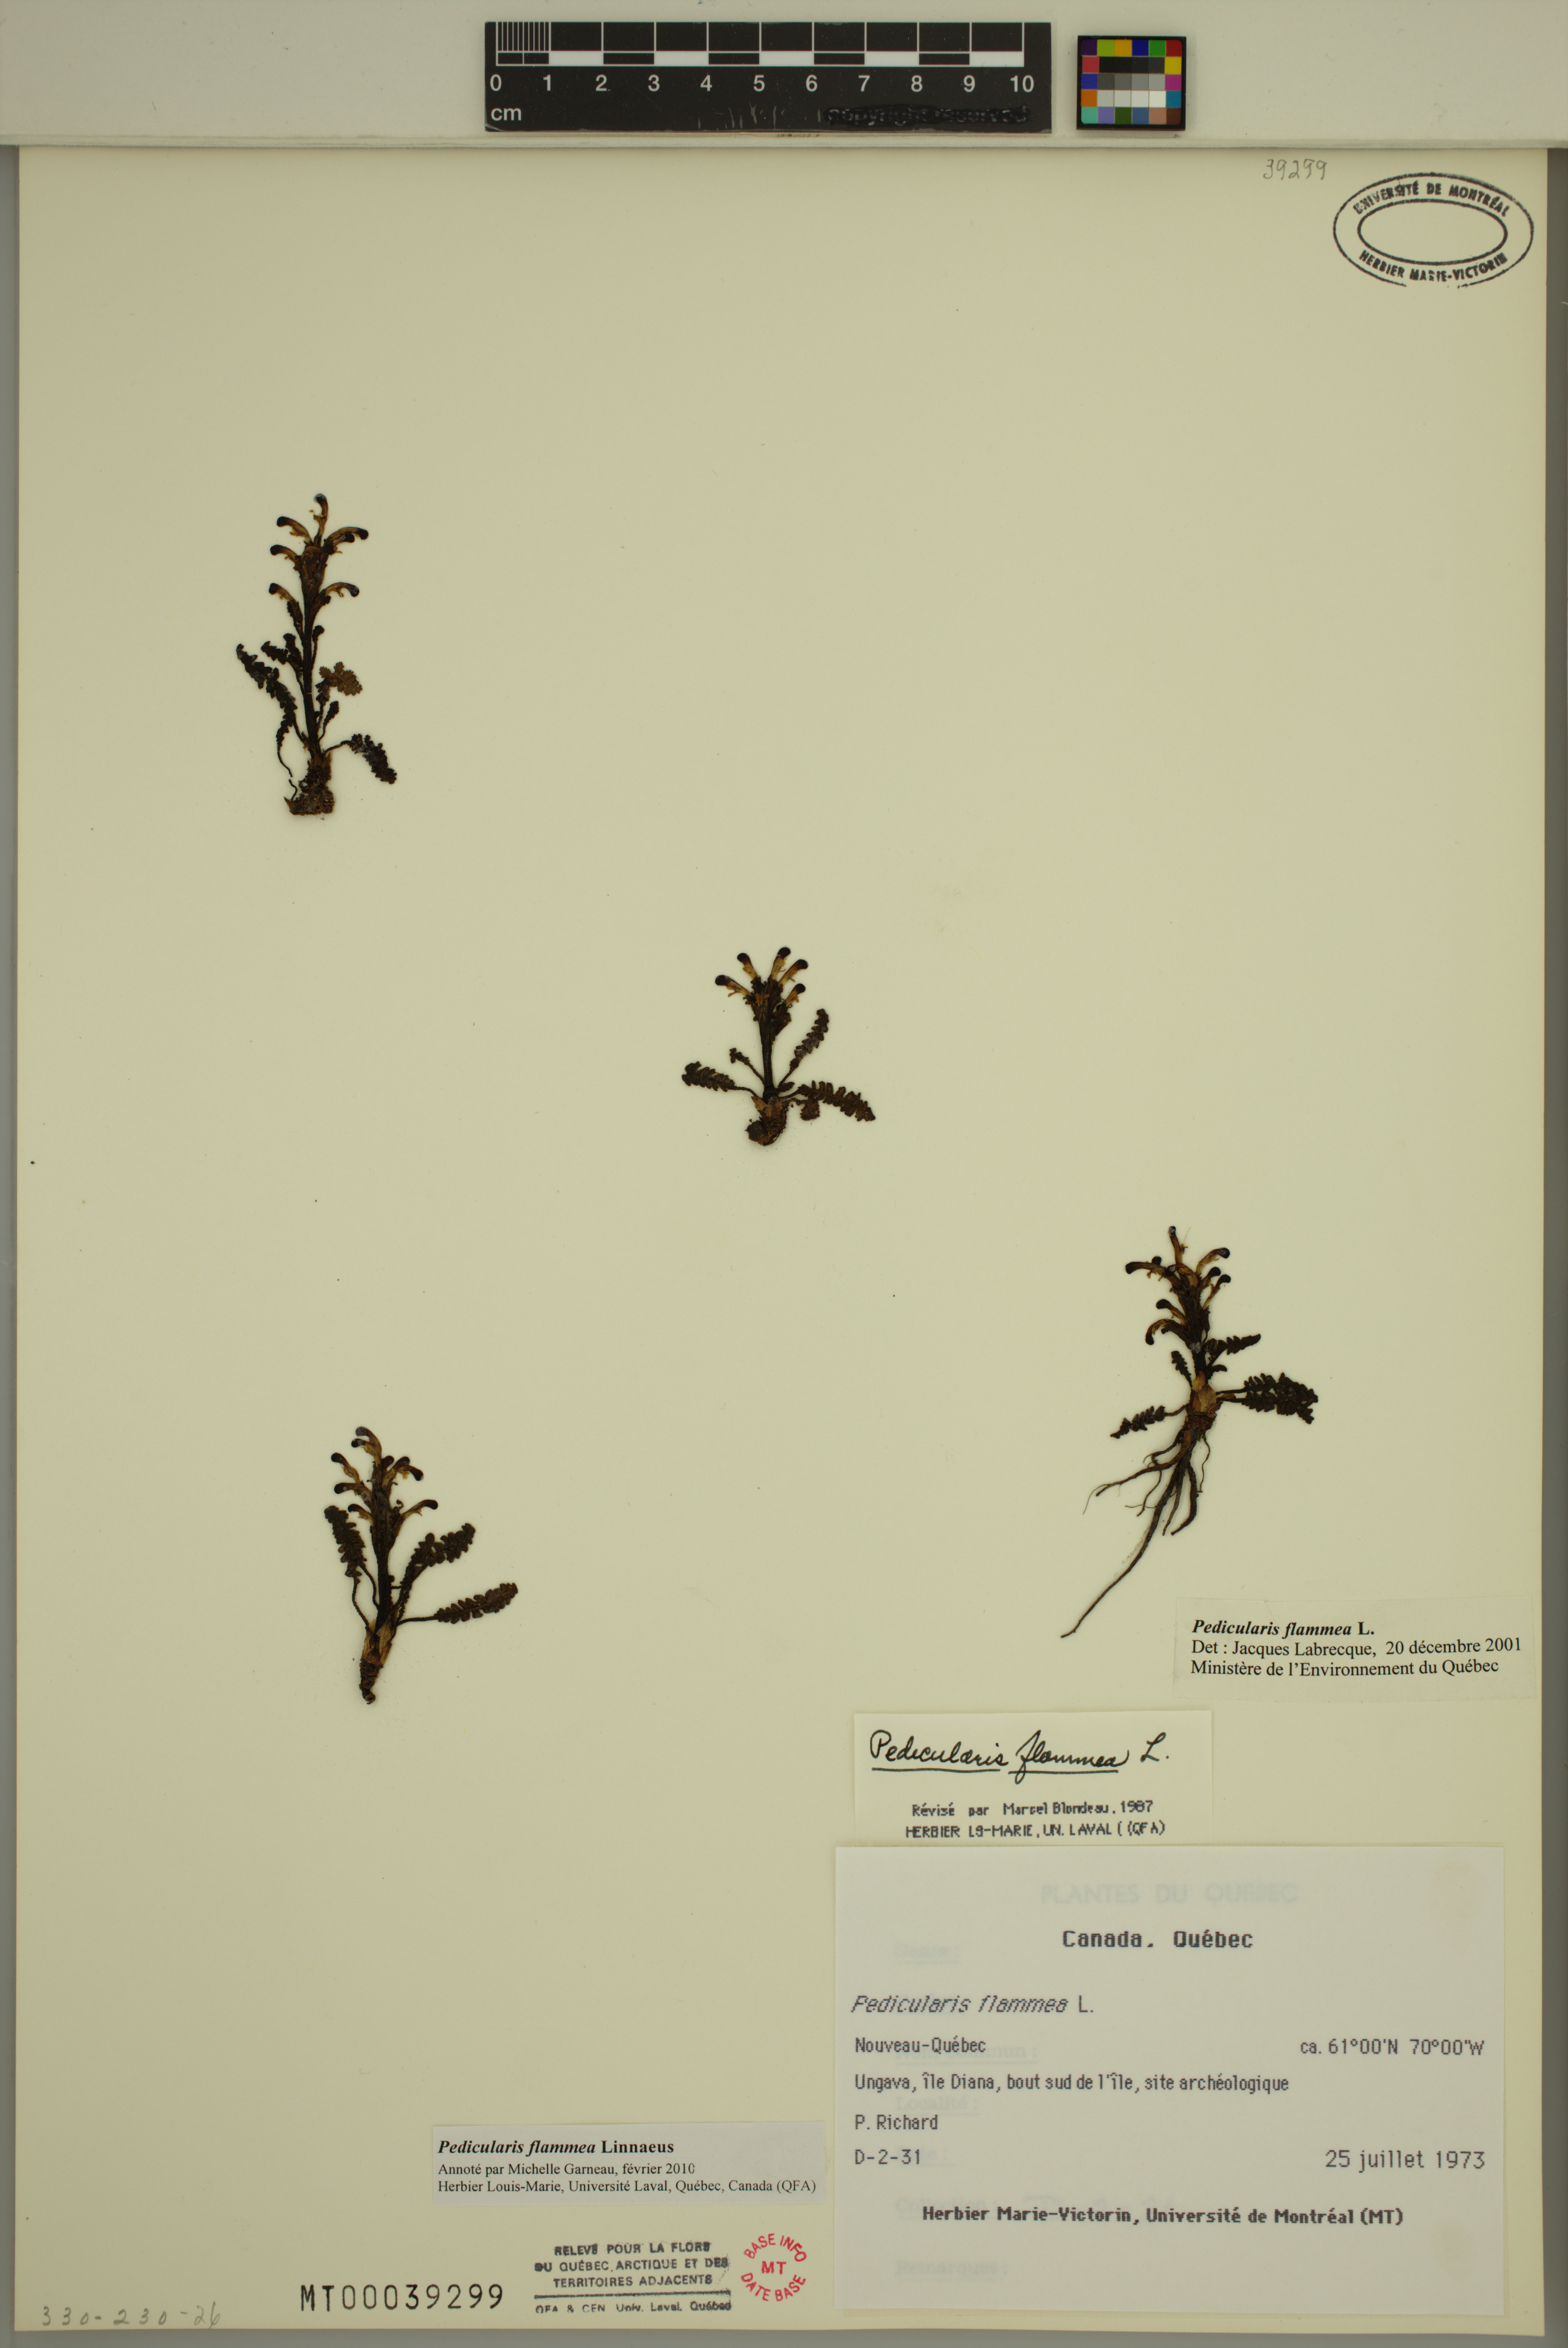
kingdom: Plantae
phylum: Tracheophyta
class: Magnoliopsida
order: Lamiales
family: Orobanchaceae
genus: Pedicularis
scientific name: Pedicularis flammea
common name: Flame-coloured lousewort
